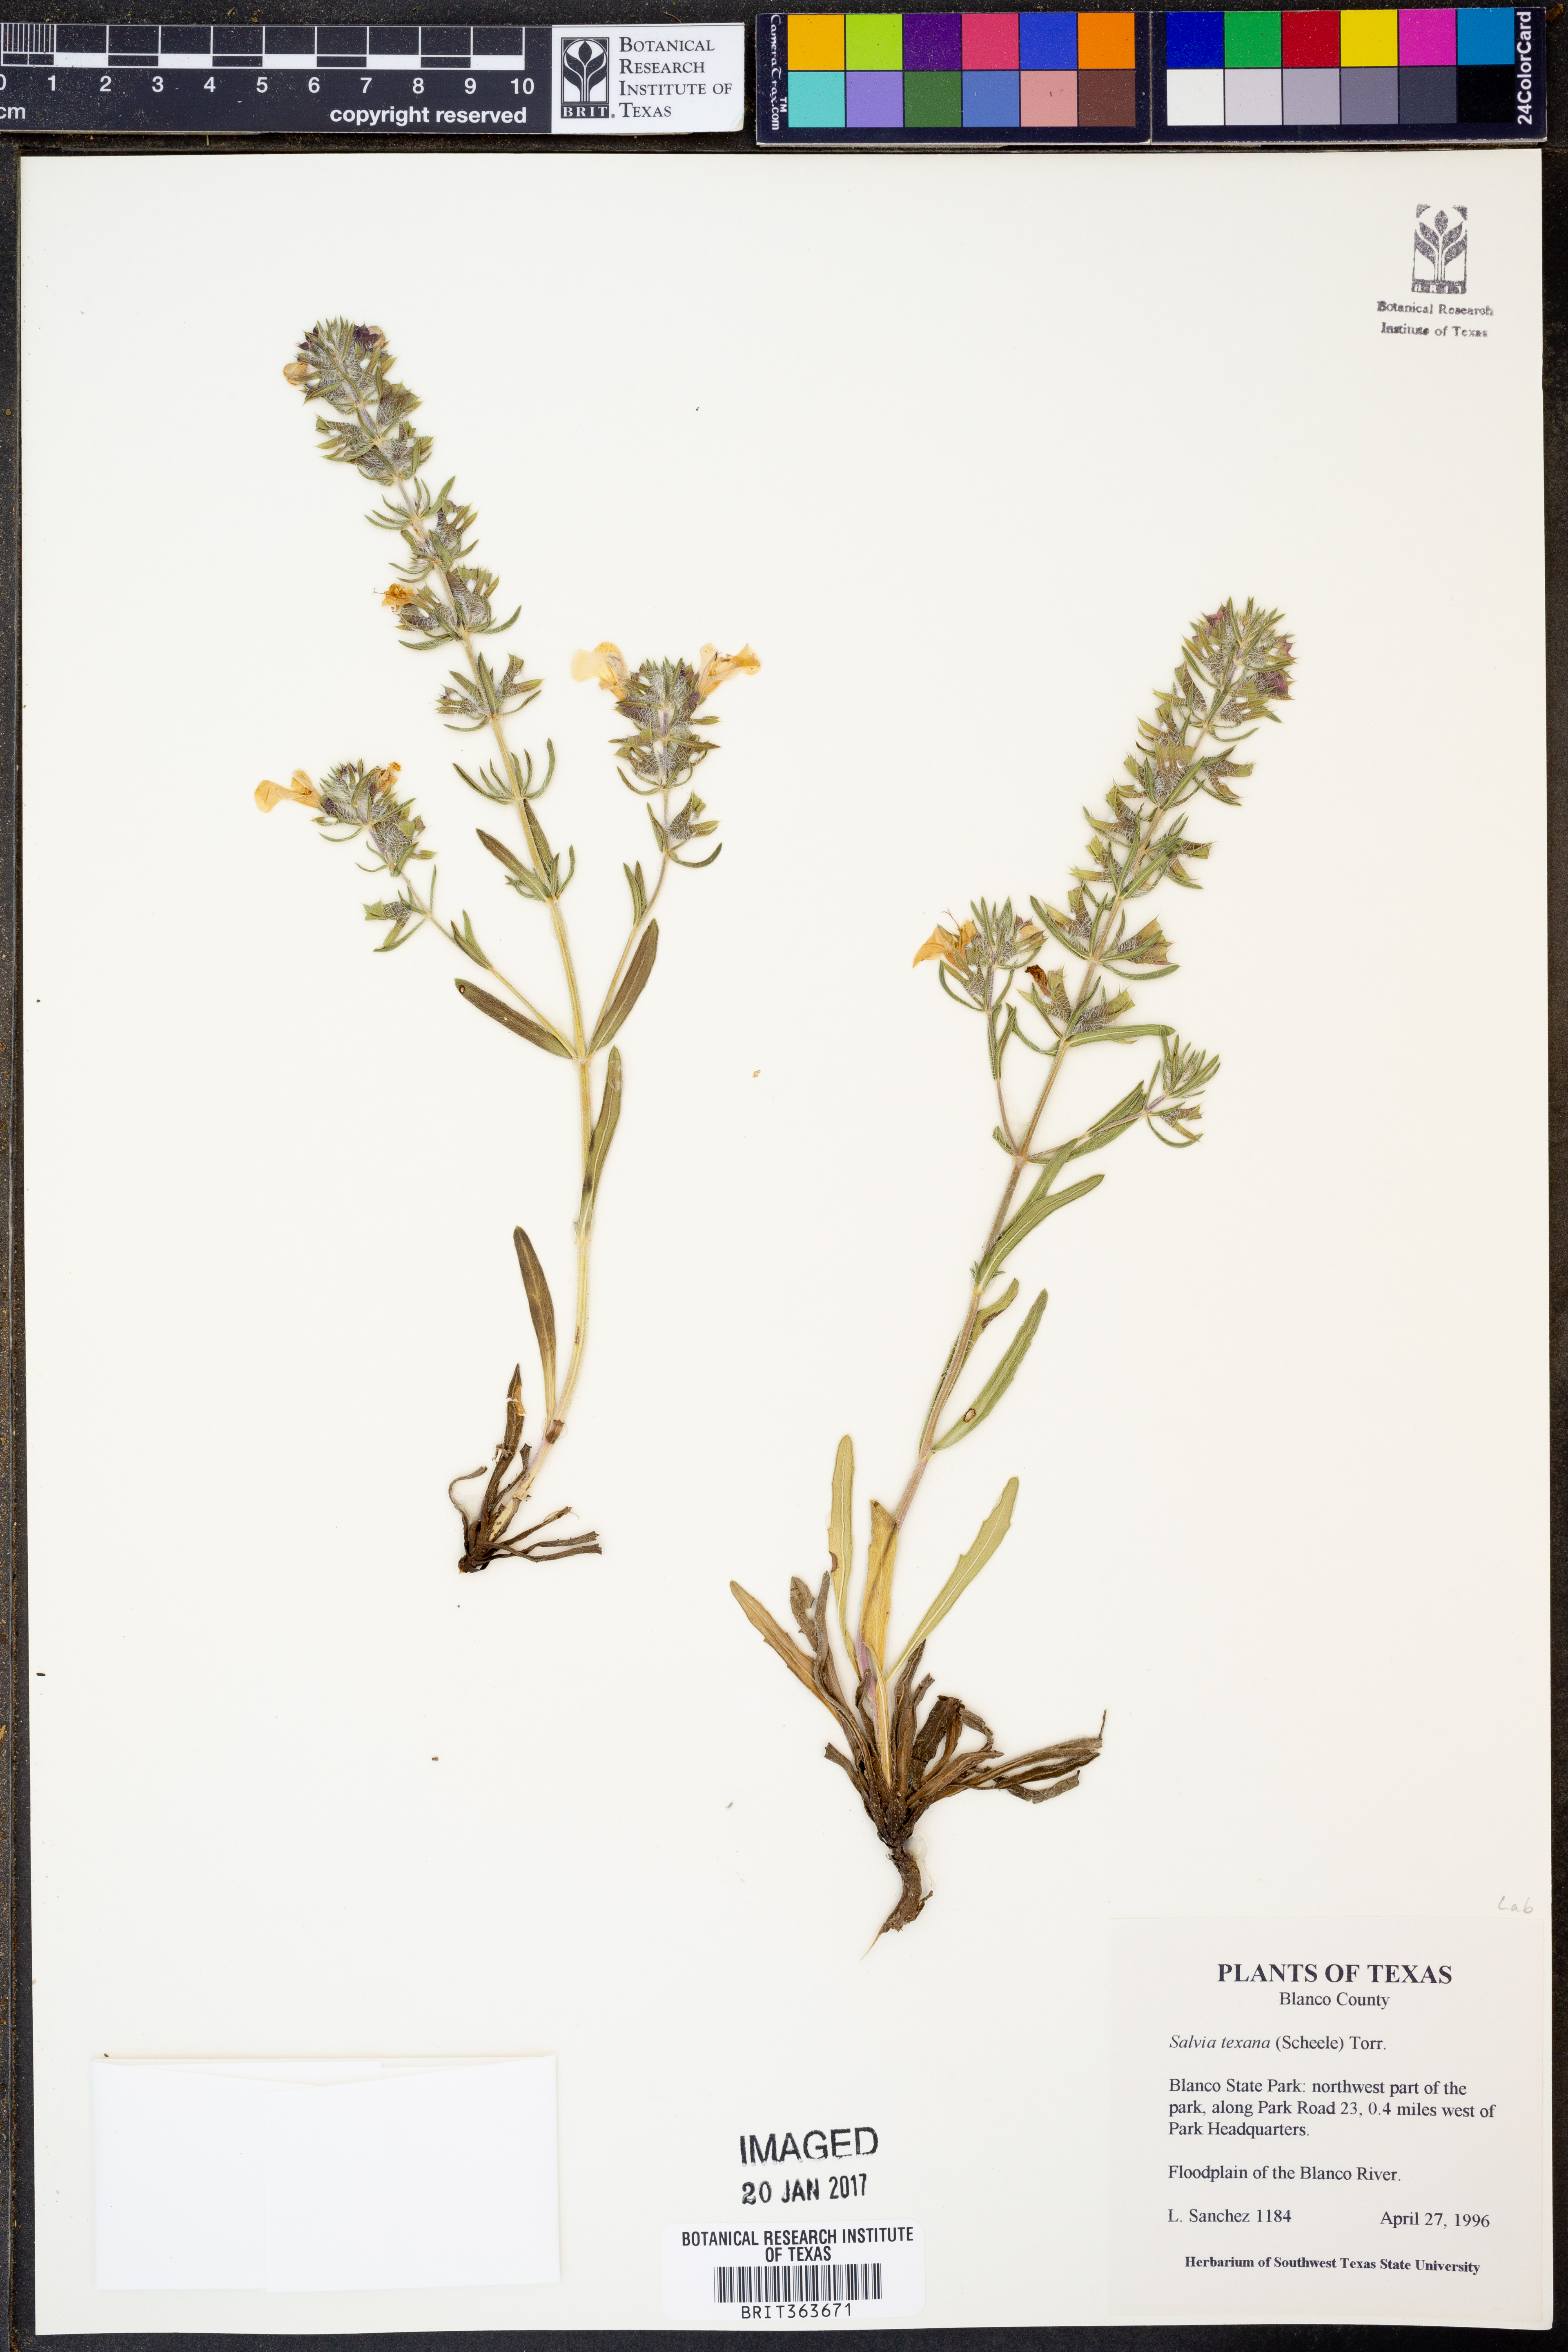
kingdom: Plantae
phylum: Tracheophyta
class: Magnoliopsida
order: Lamiales
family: Lamiaceae
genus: Salvia
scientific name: Salvia texana
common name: Texas sage
